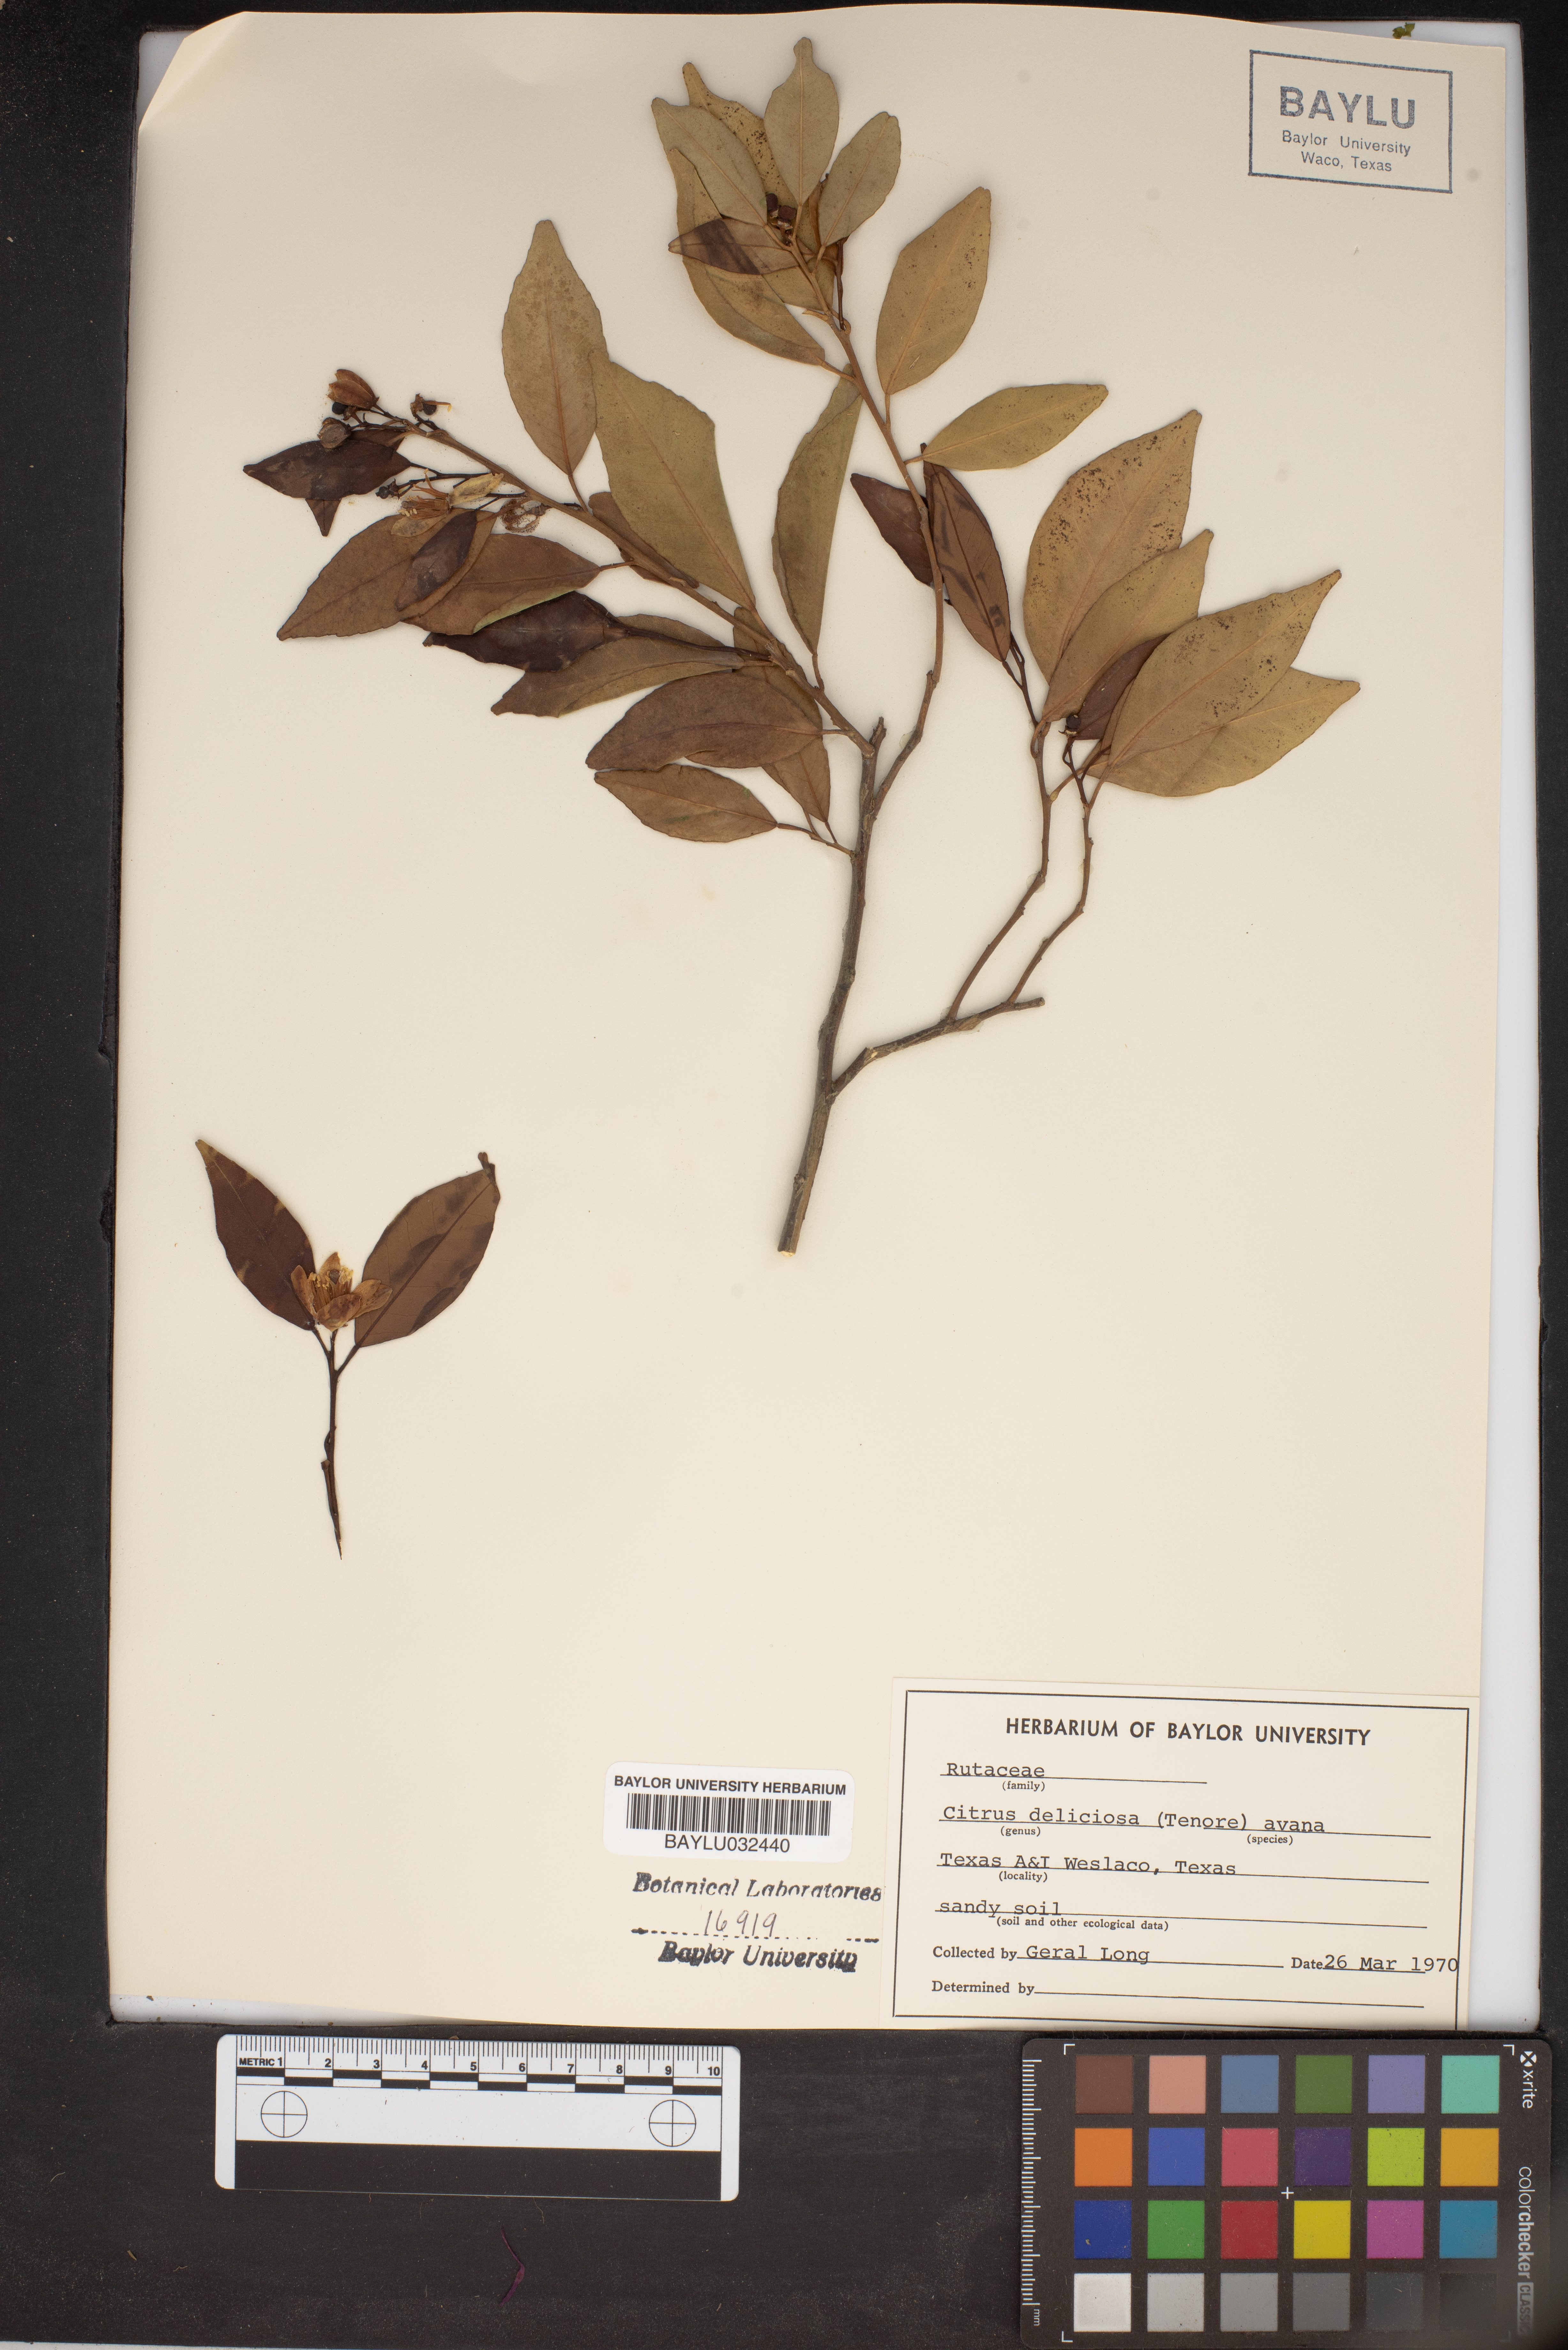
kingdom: Plantae
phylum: Tracheophyta
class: Magnoliopsida
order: Sapindales
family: Rutaceae
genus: Citrus
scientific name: Citrus
